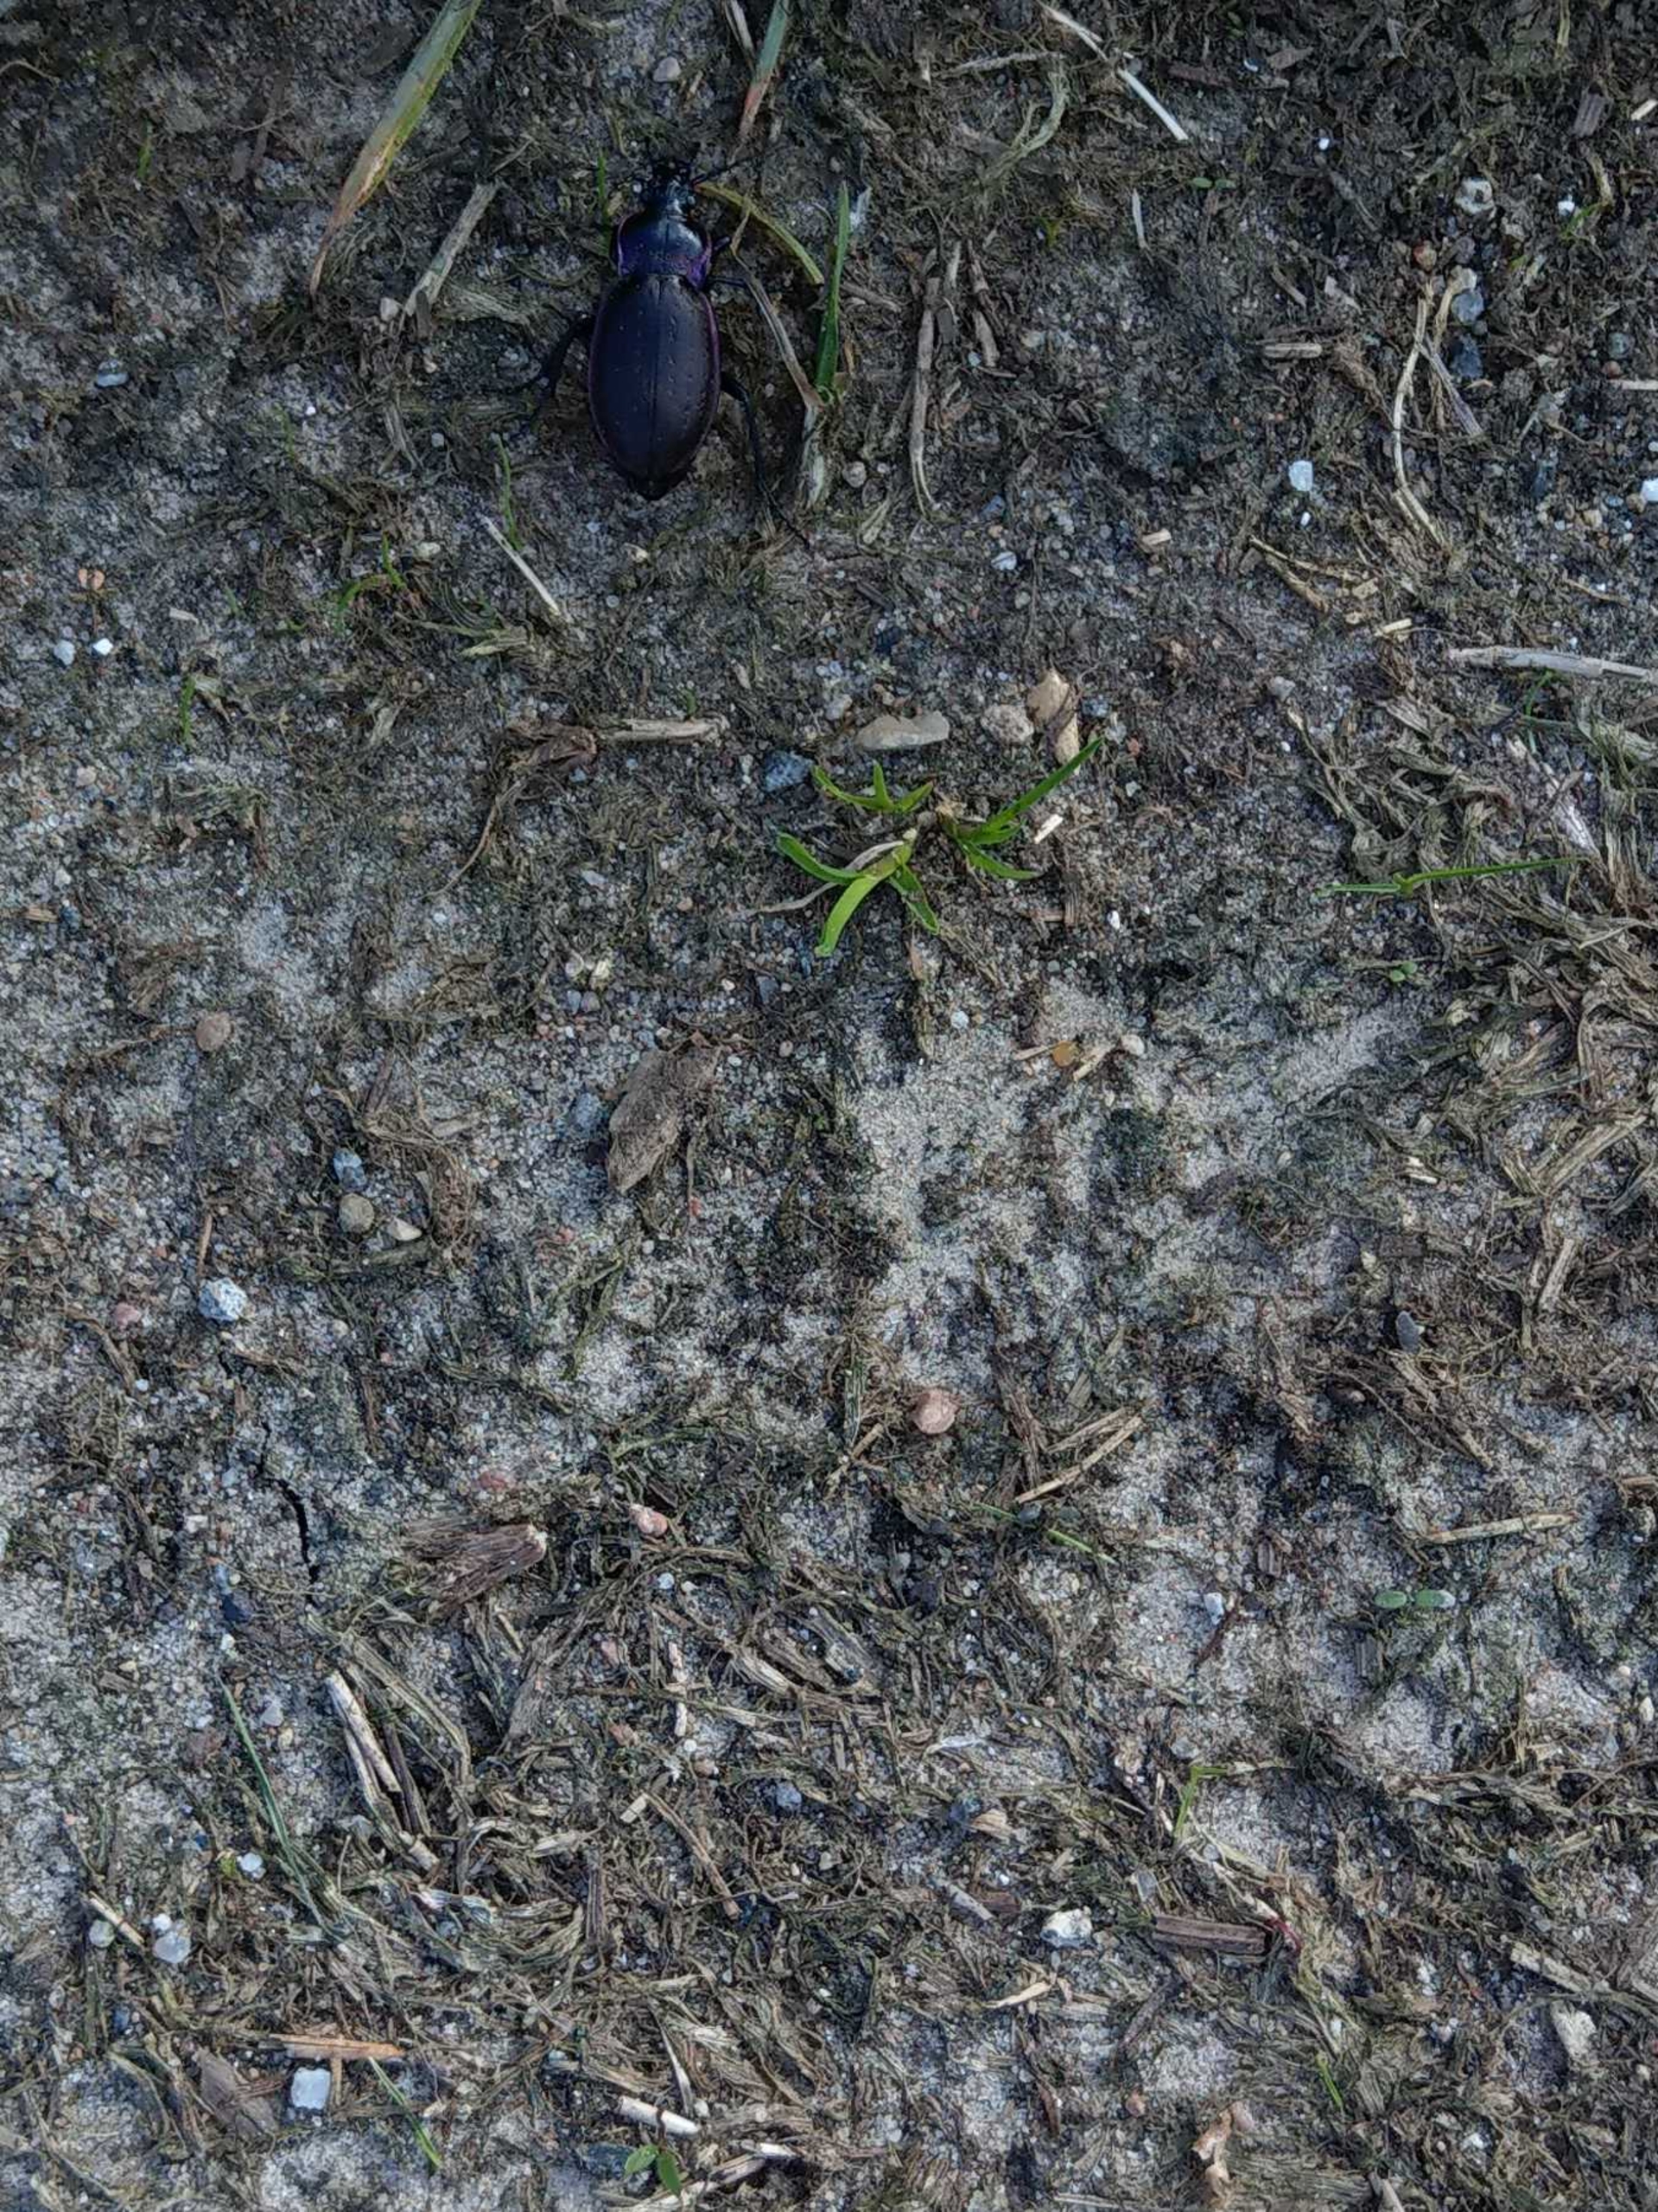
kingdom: Animalia
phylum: Arthropoda
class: Insecta
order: Coleoptera
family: Carabidae
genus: Carabus
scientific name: Carabus nemoralis
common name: Kratløber
